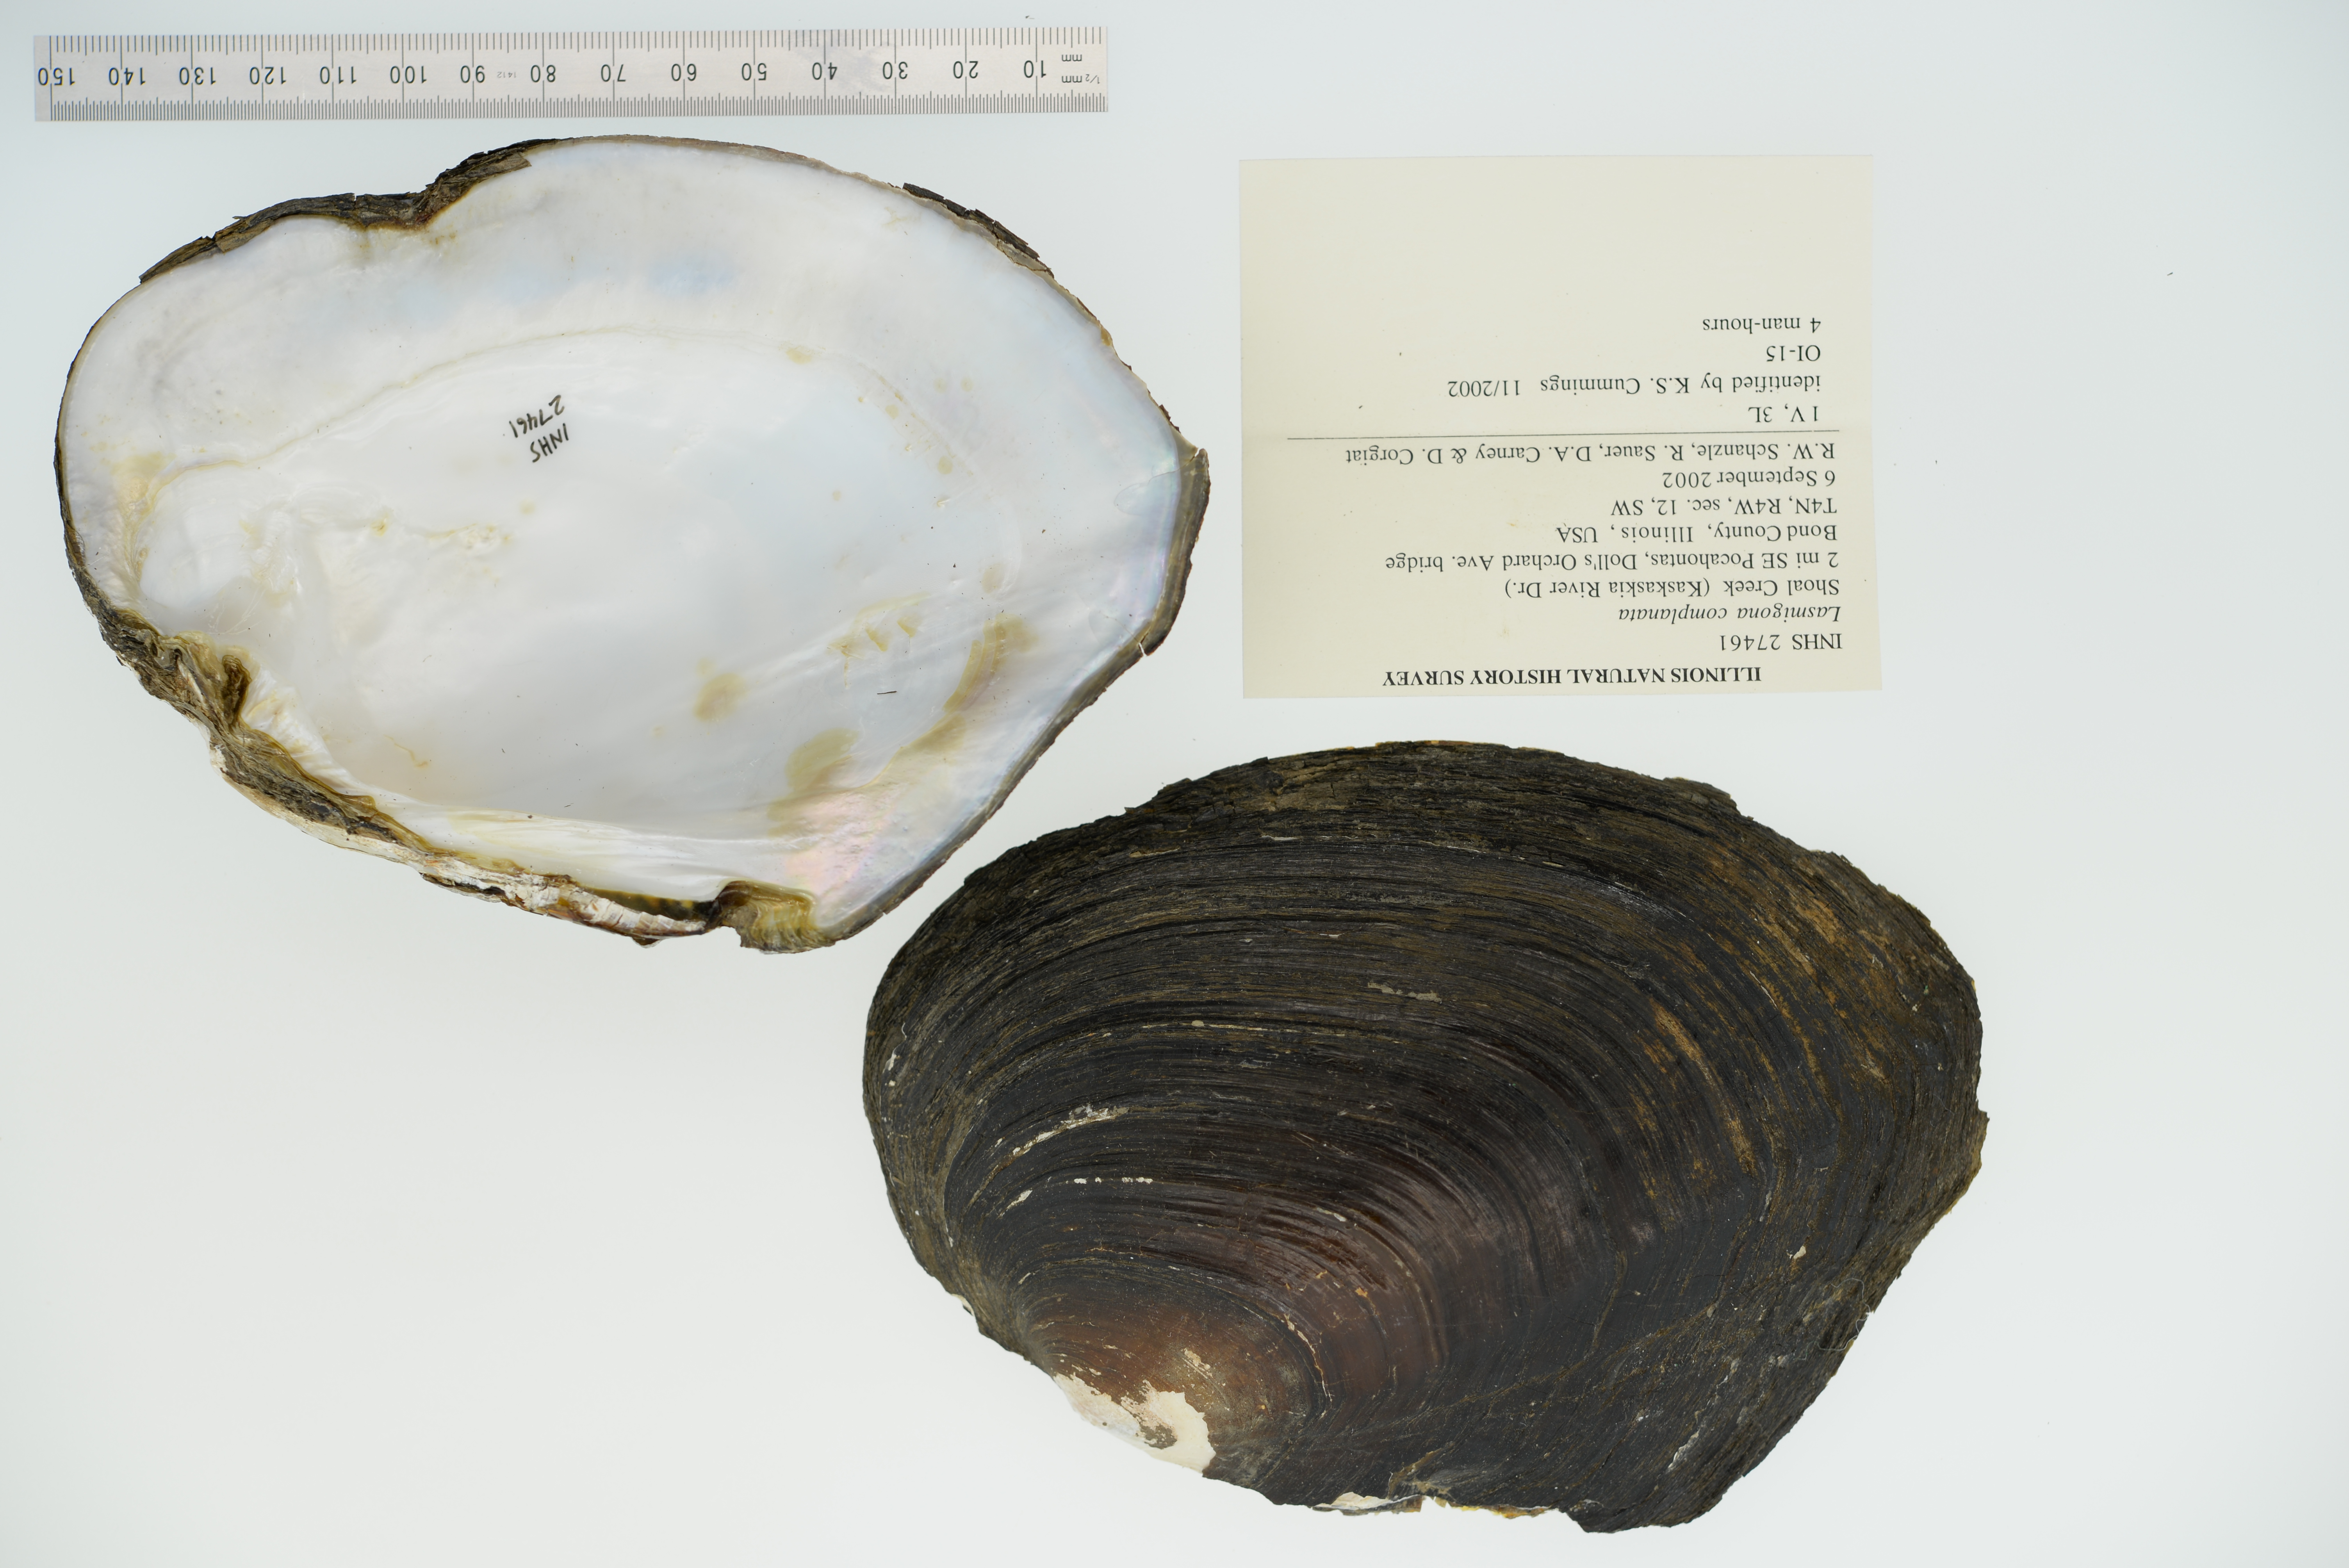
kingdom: Animalia
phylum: Mollusca
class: Bivalvia
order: Unionida
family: Unionidae
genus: Lasmigona
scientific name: Lasmigona complanata
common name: White heelsplitter
